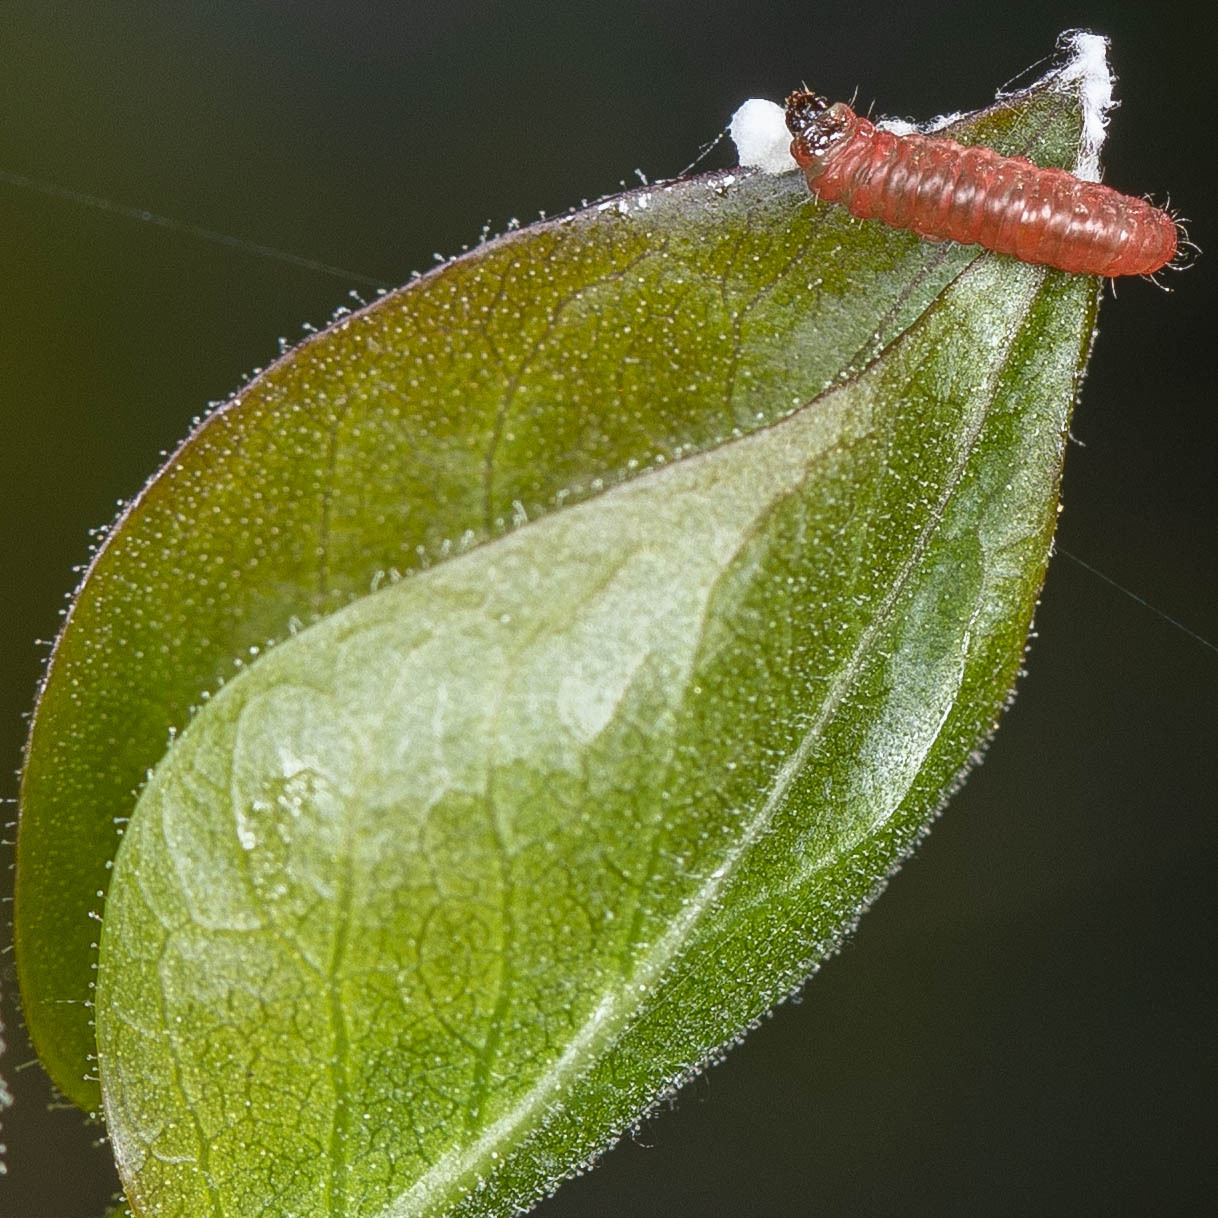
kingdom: Animalia
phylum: Arthropoda
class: Insecta
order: Lepidoptera
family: Argyresthiidae
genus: Argyresthia
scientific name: Argyresthia
